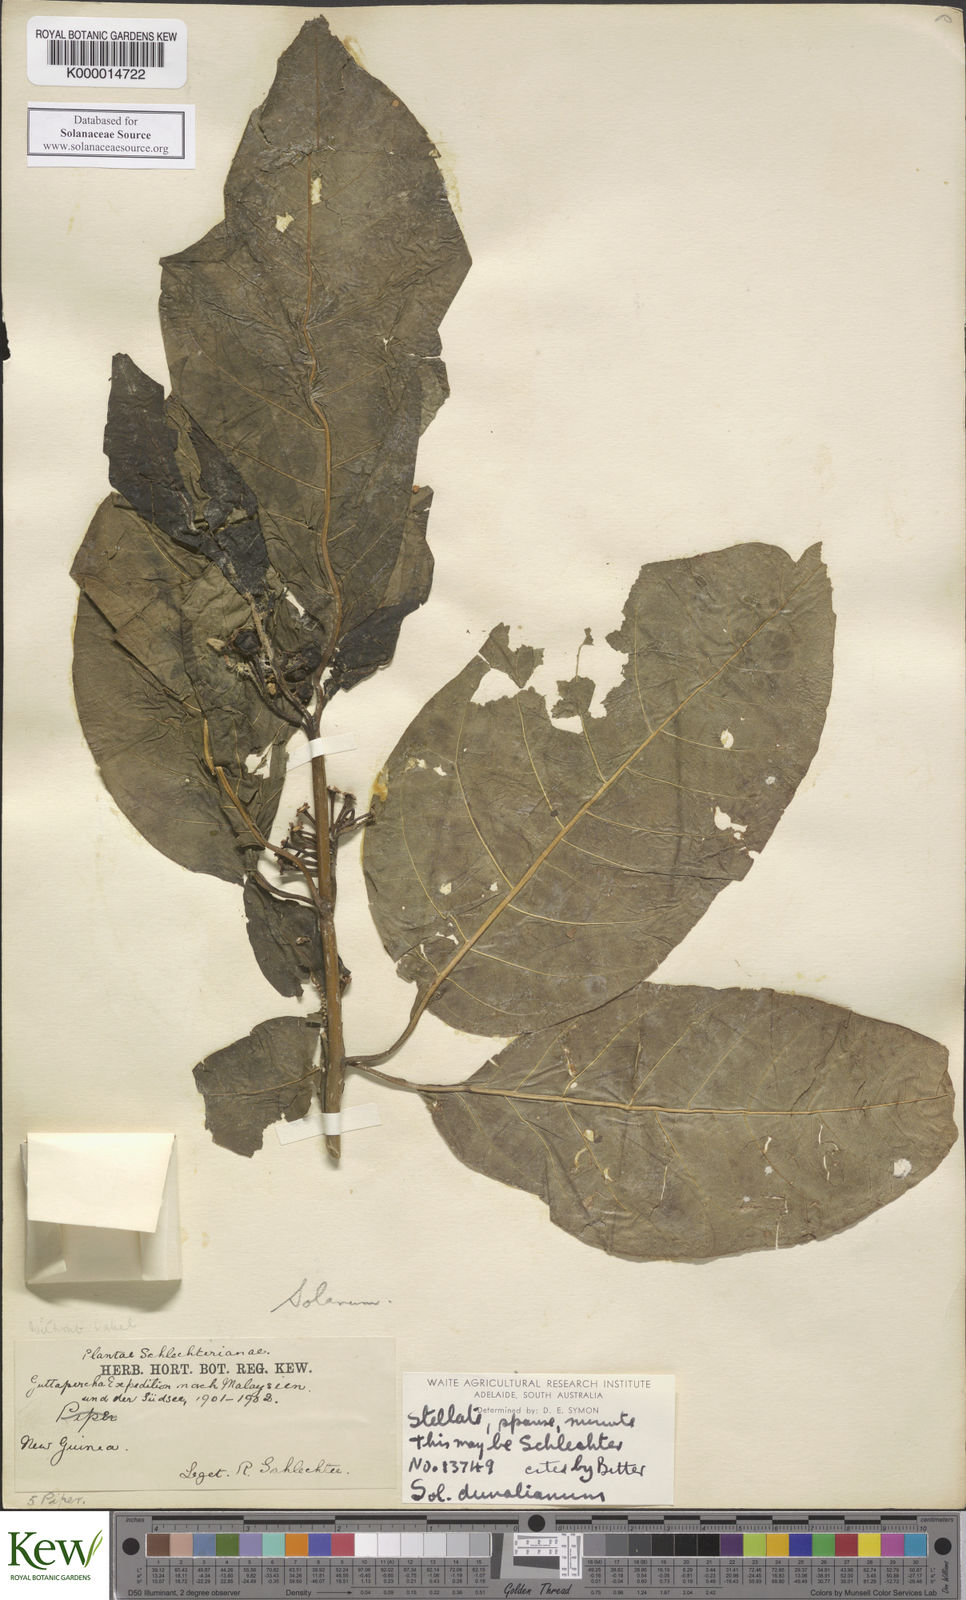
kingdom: Plantae
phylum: Tracheophyta
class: Magnoliopsida
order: Solanales
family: Solanaceae
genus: Solanum
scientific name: Solanum dunalianum
